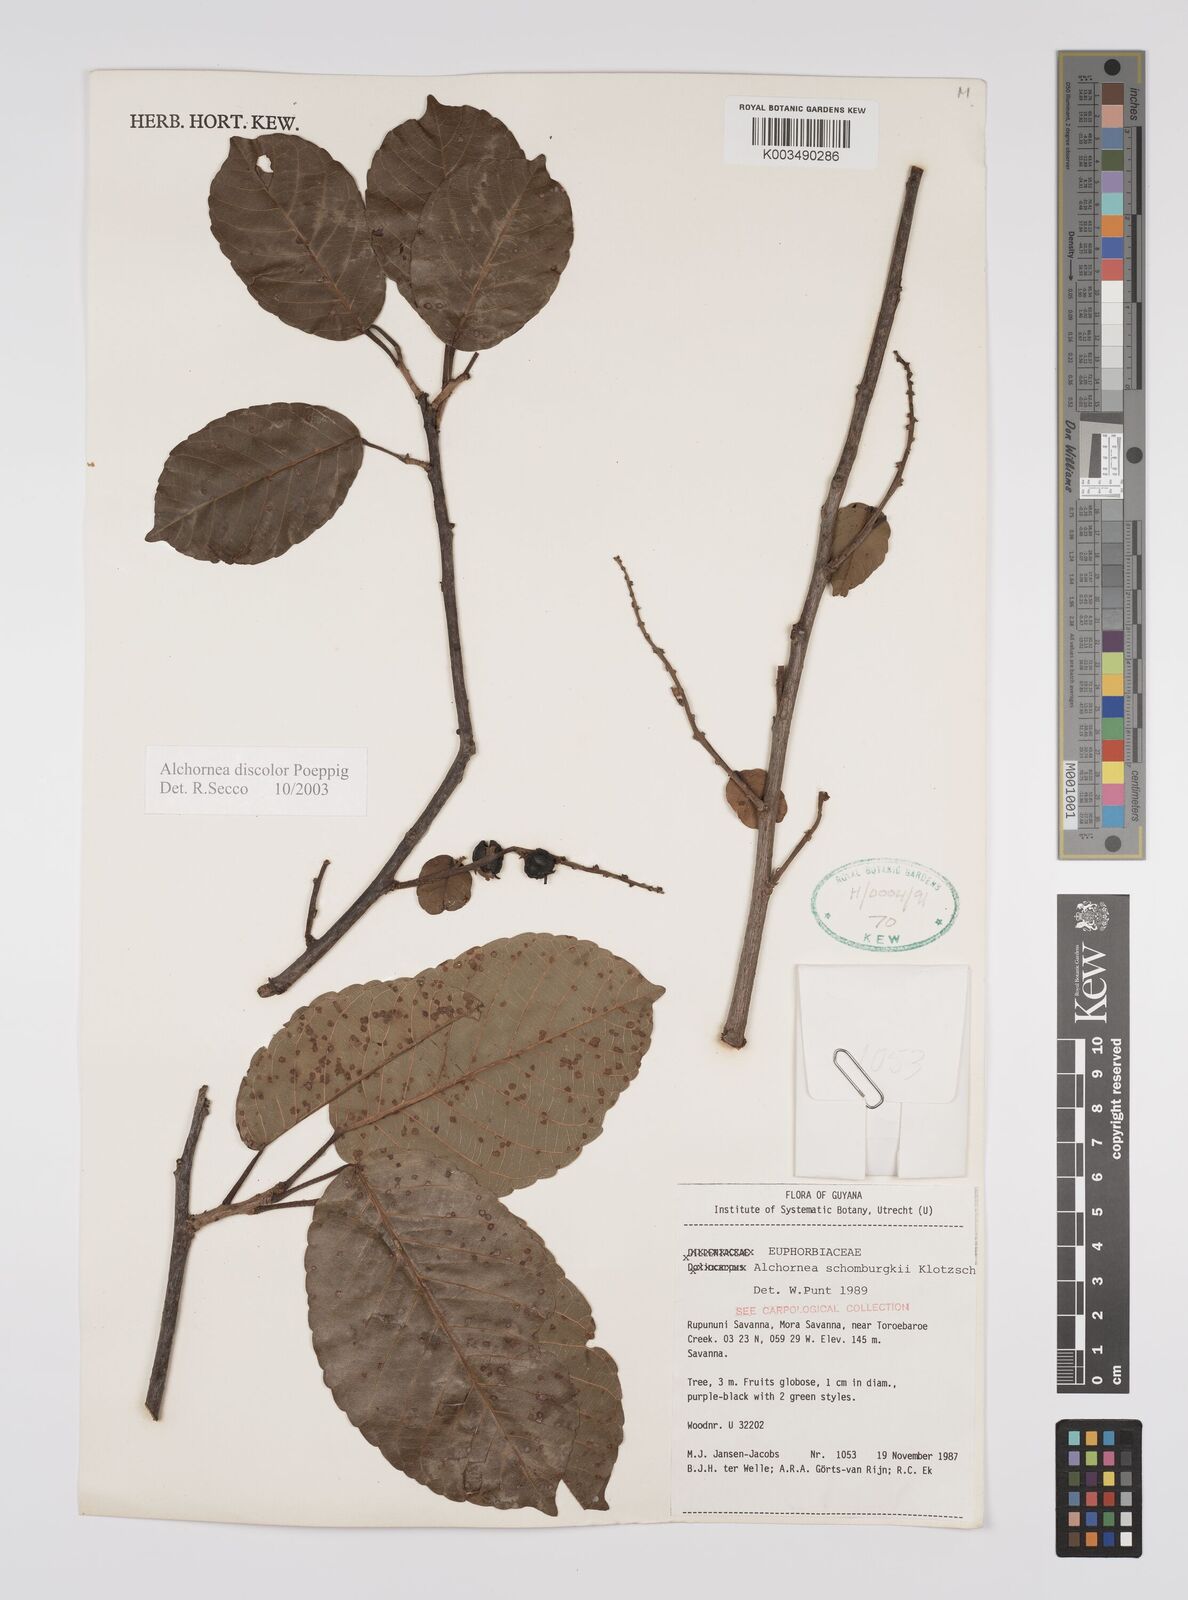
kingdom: Plantae
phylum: Tracheophyta
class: Magnoliopsida
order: Malpighiales
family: Euphorbiaceae
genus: Alchornea
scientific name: Alchornea discolor
